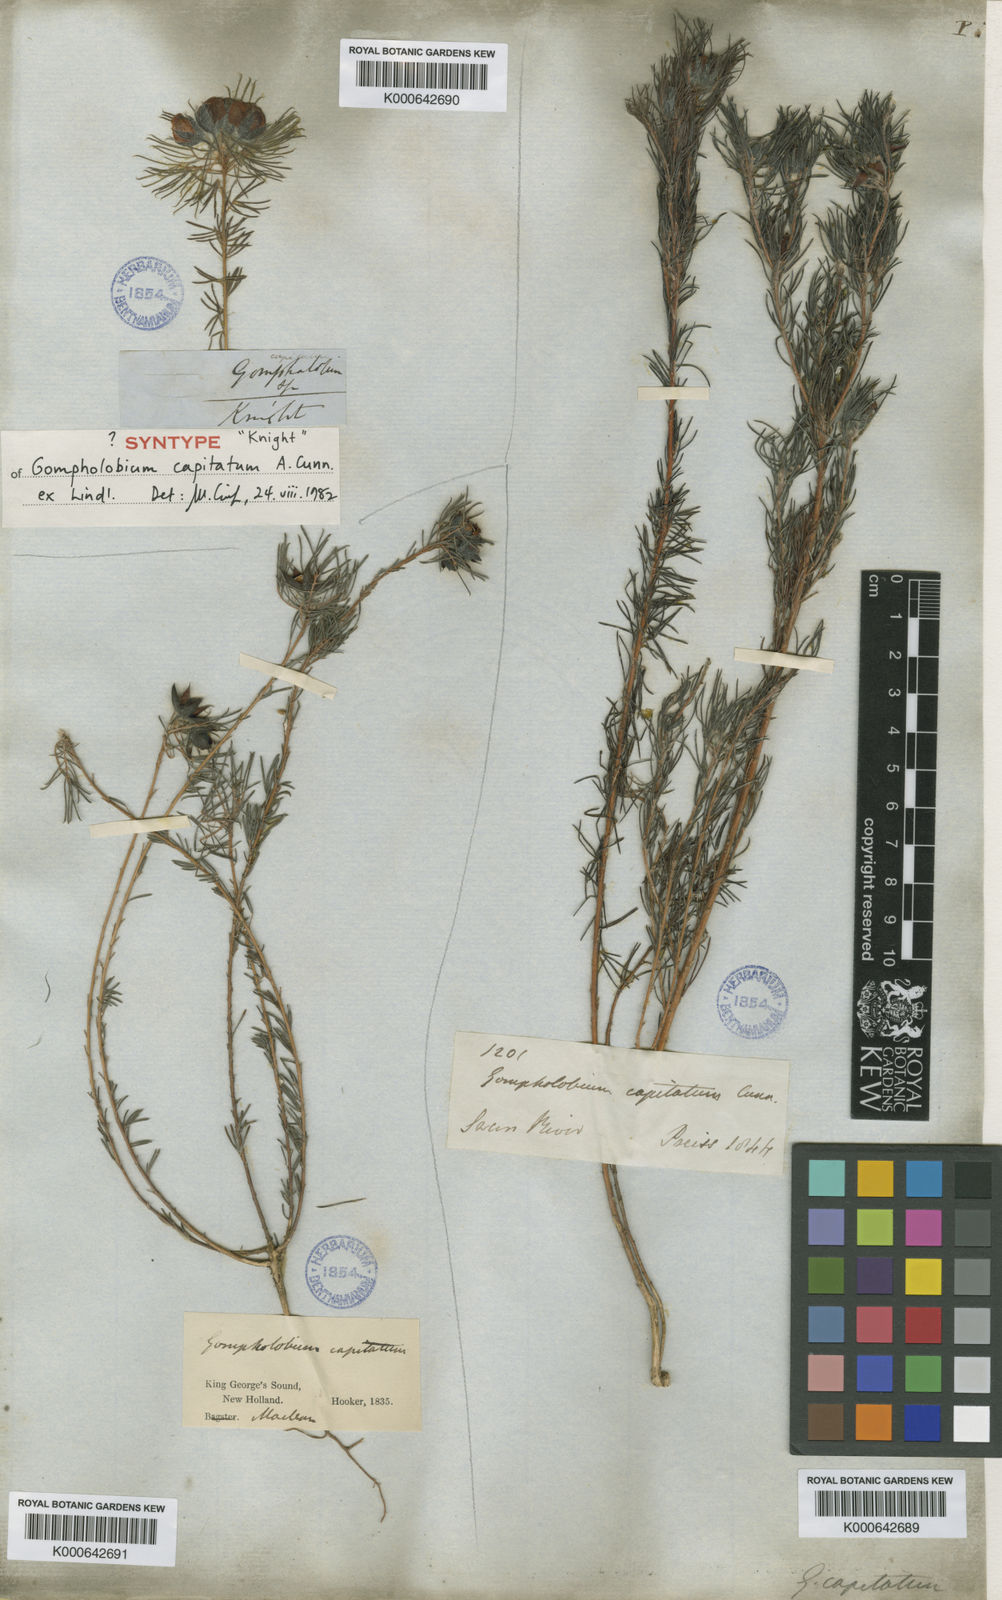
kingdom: Plantae
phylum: Tracheophyta
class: Magnoliopsida
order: Fabales
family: Fabaceae
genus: Gompholobium
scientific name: Gompholobium
